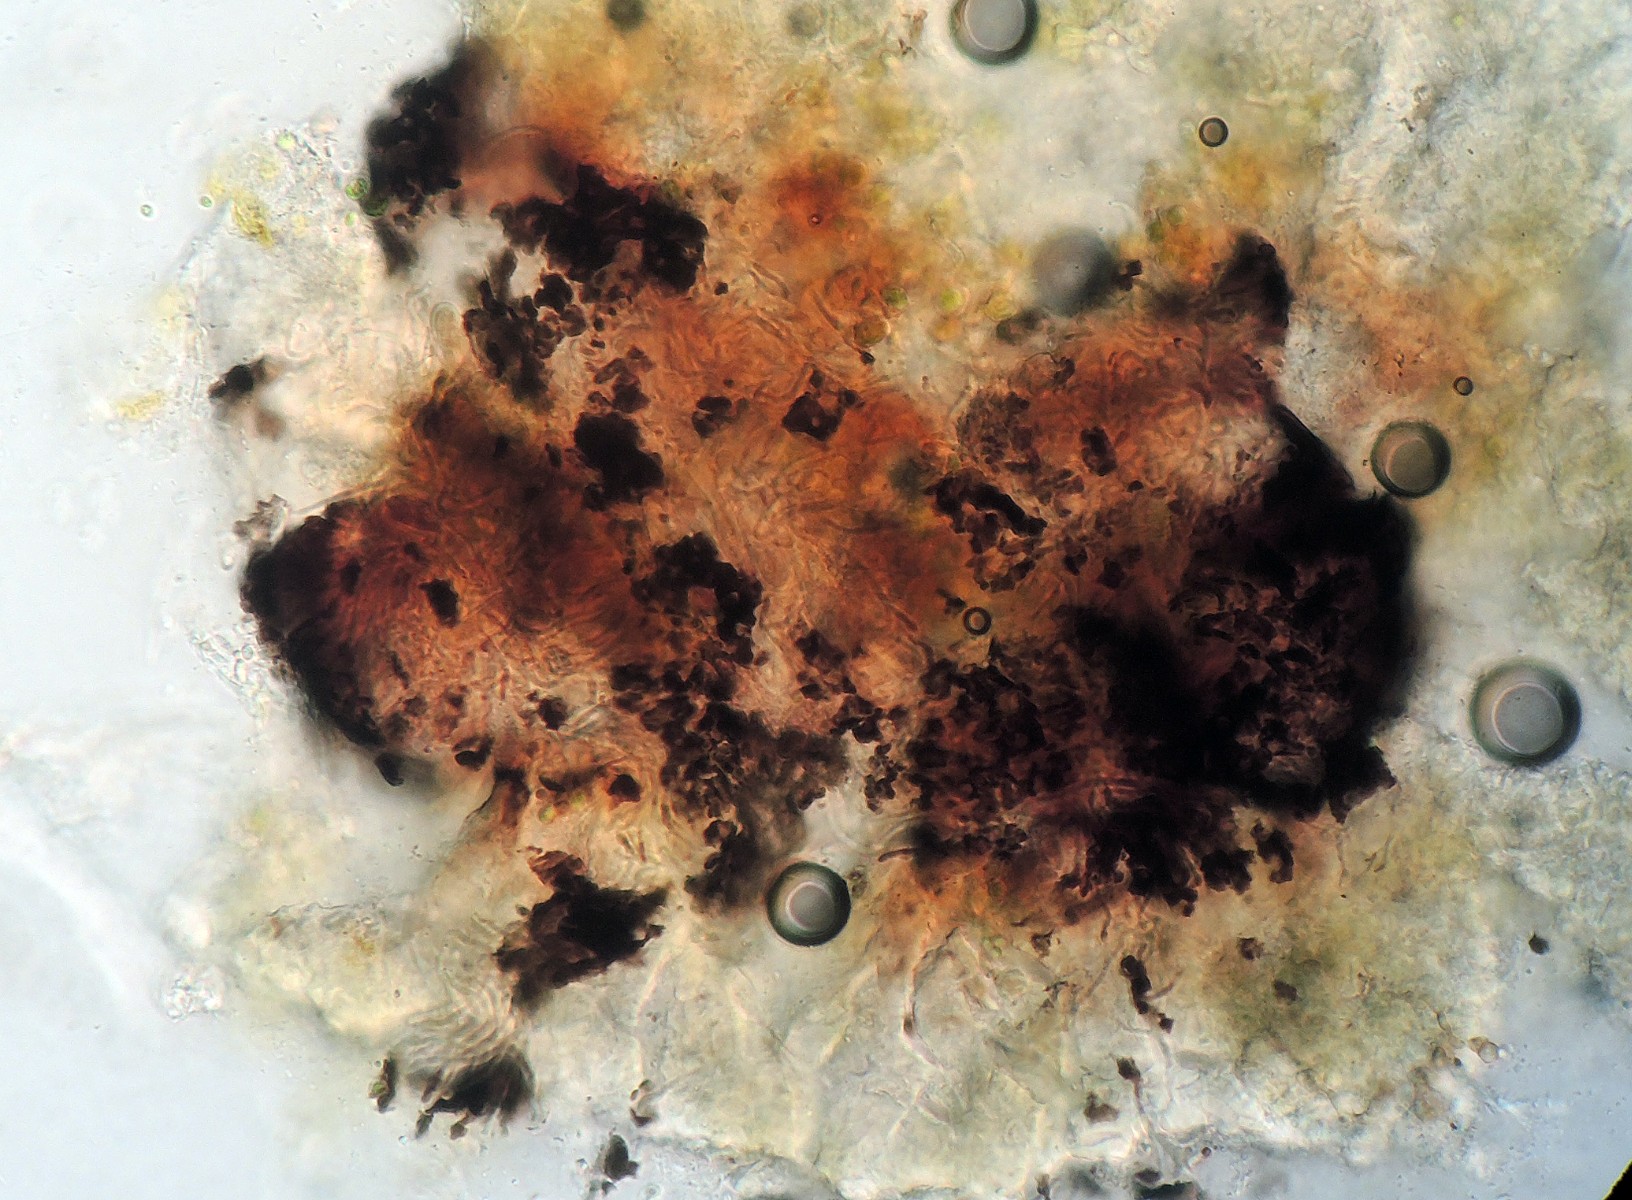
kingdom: Fungi
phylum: Ascomycota
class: Lecanoromycetes
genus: Bachmanniomyces
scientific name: Bachmanniomyces punctum
